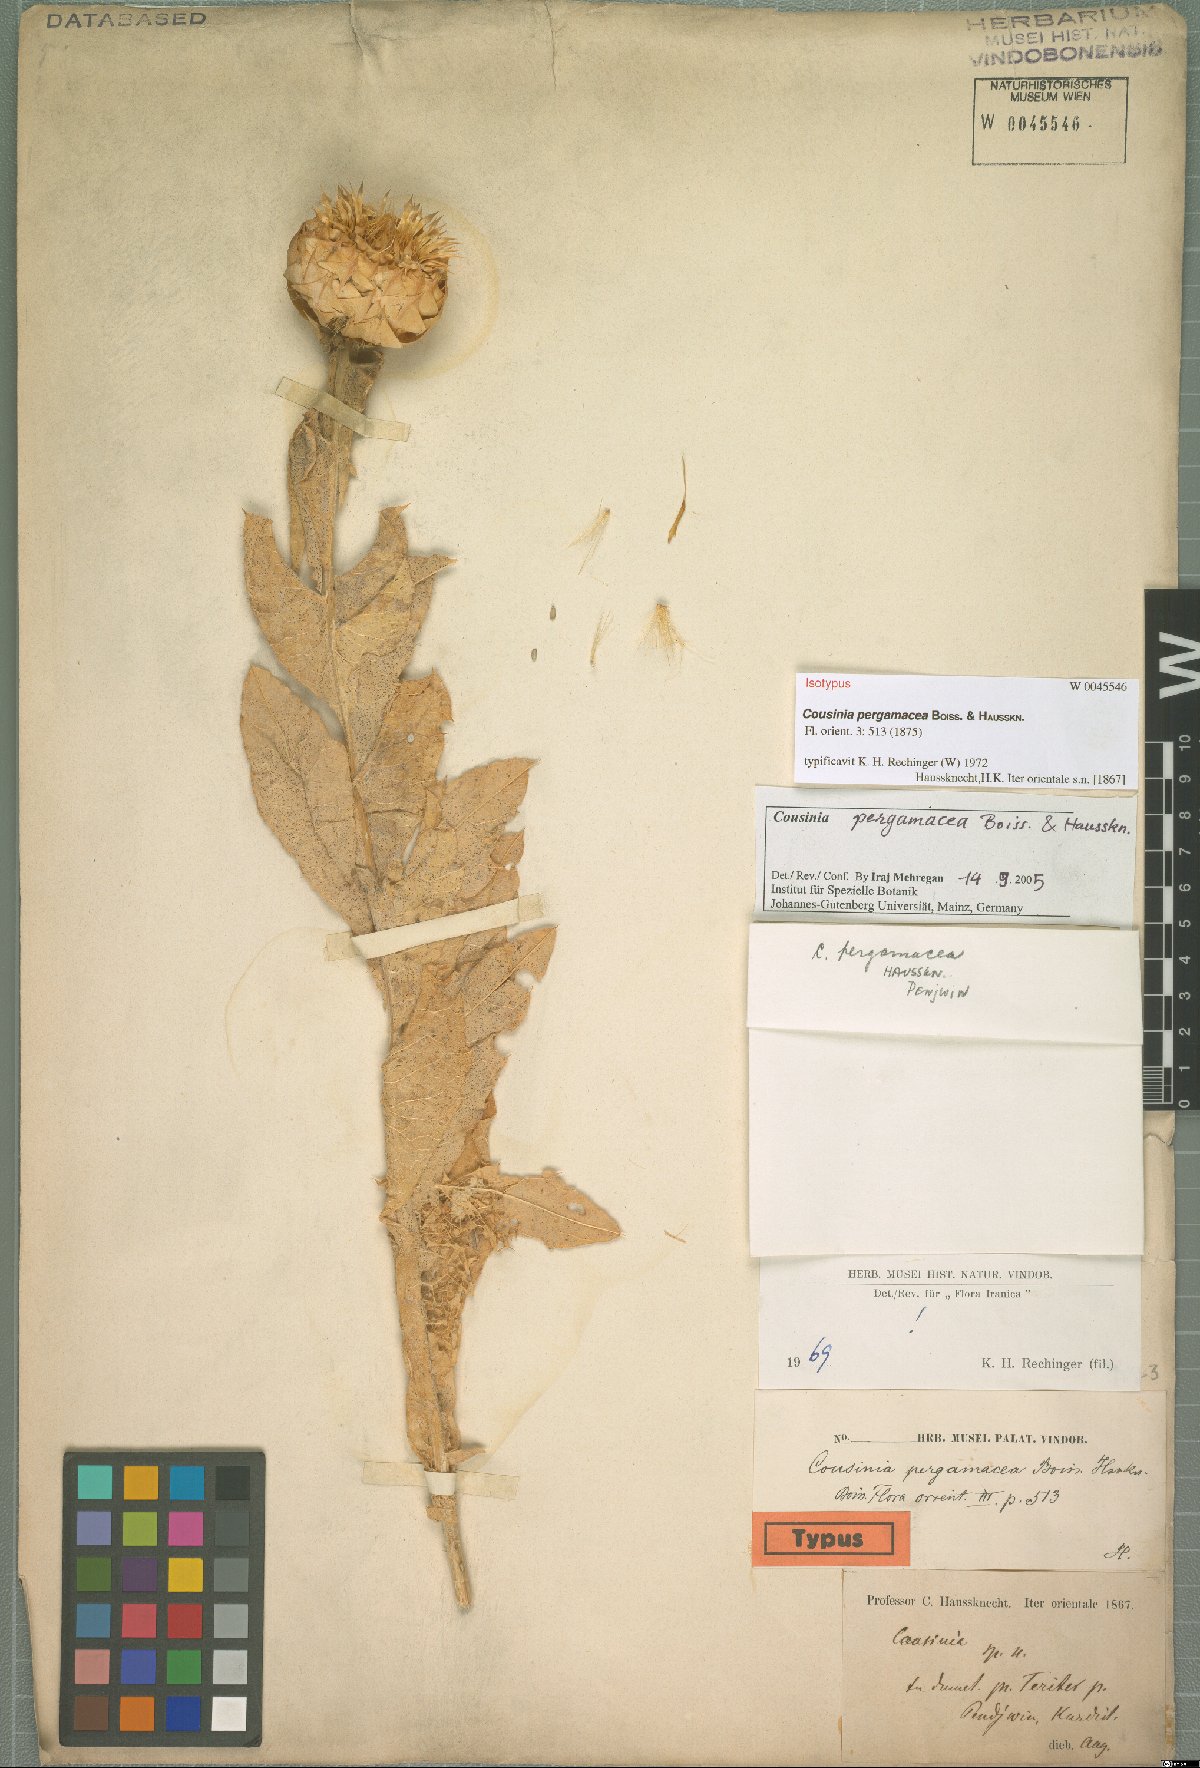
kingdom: Plantae
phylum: Tracheophyta
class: Magnoliopsida
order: Asterales
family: Asteraceae
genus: Cousinia
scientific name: Cousinia pergamacea
